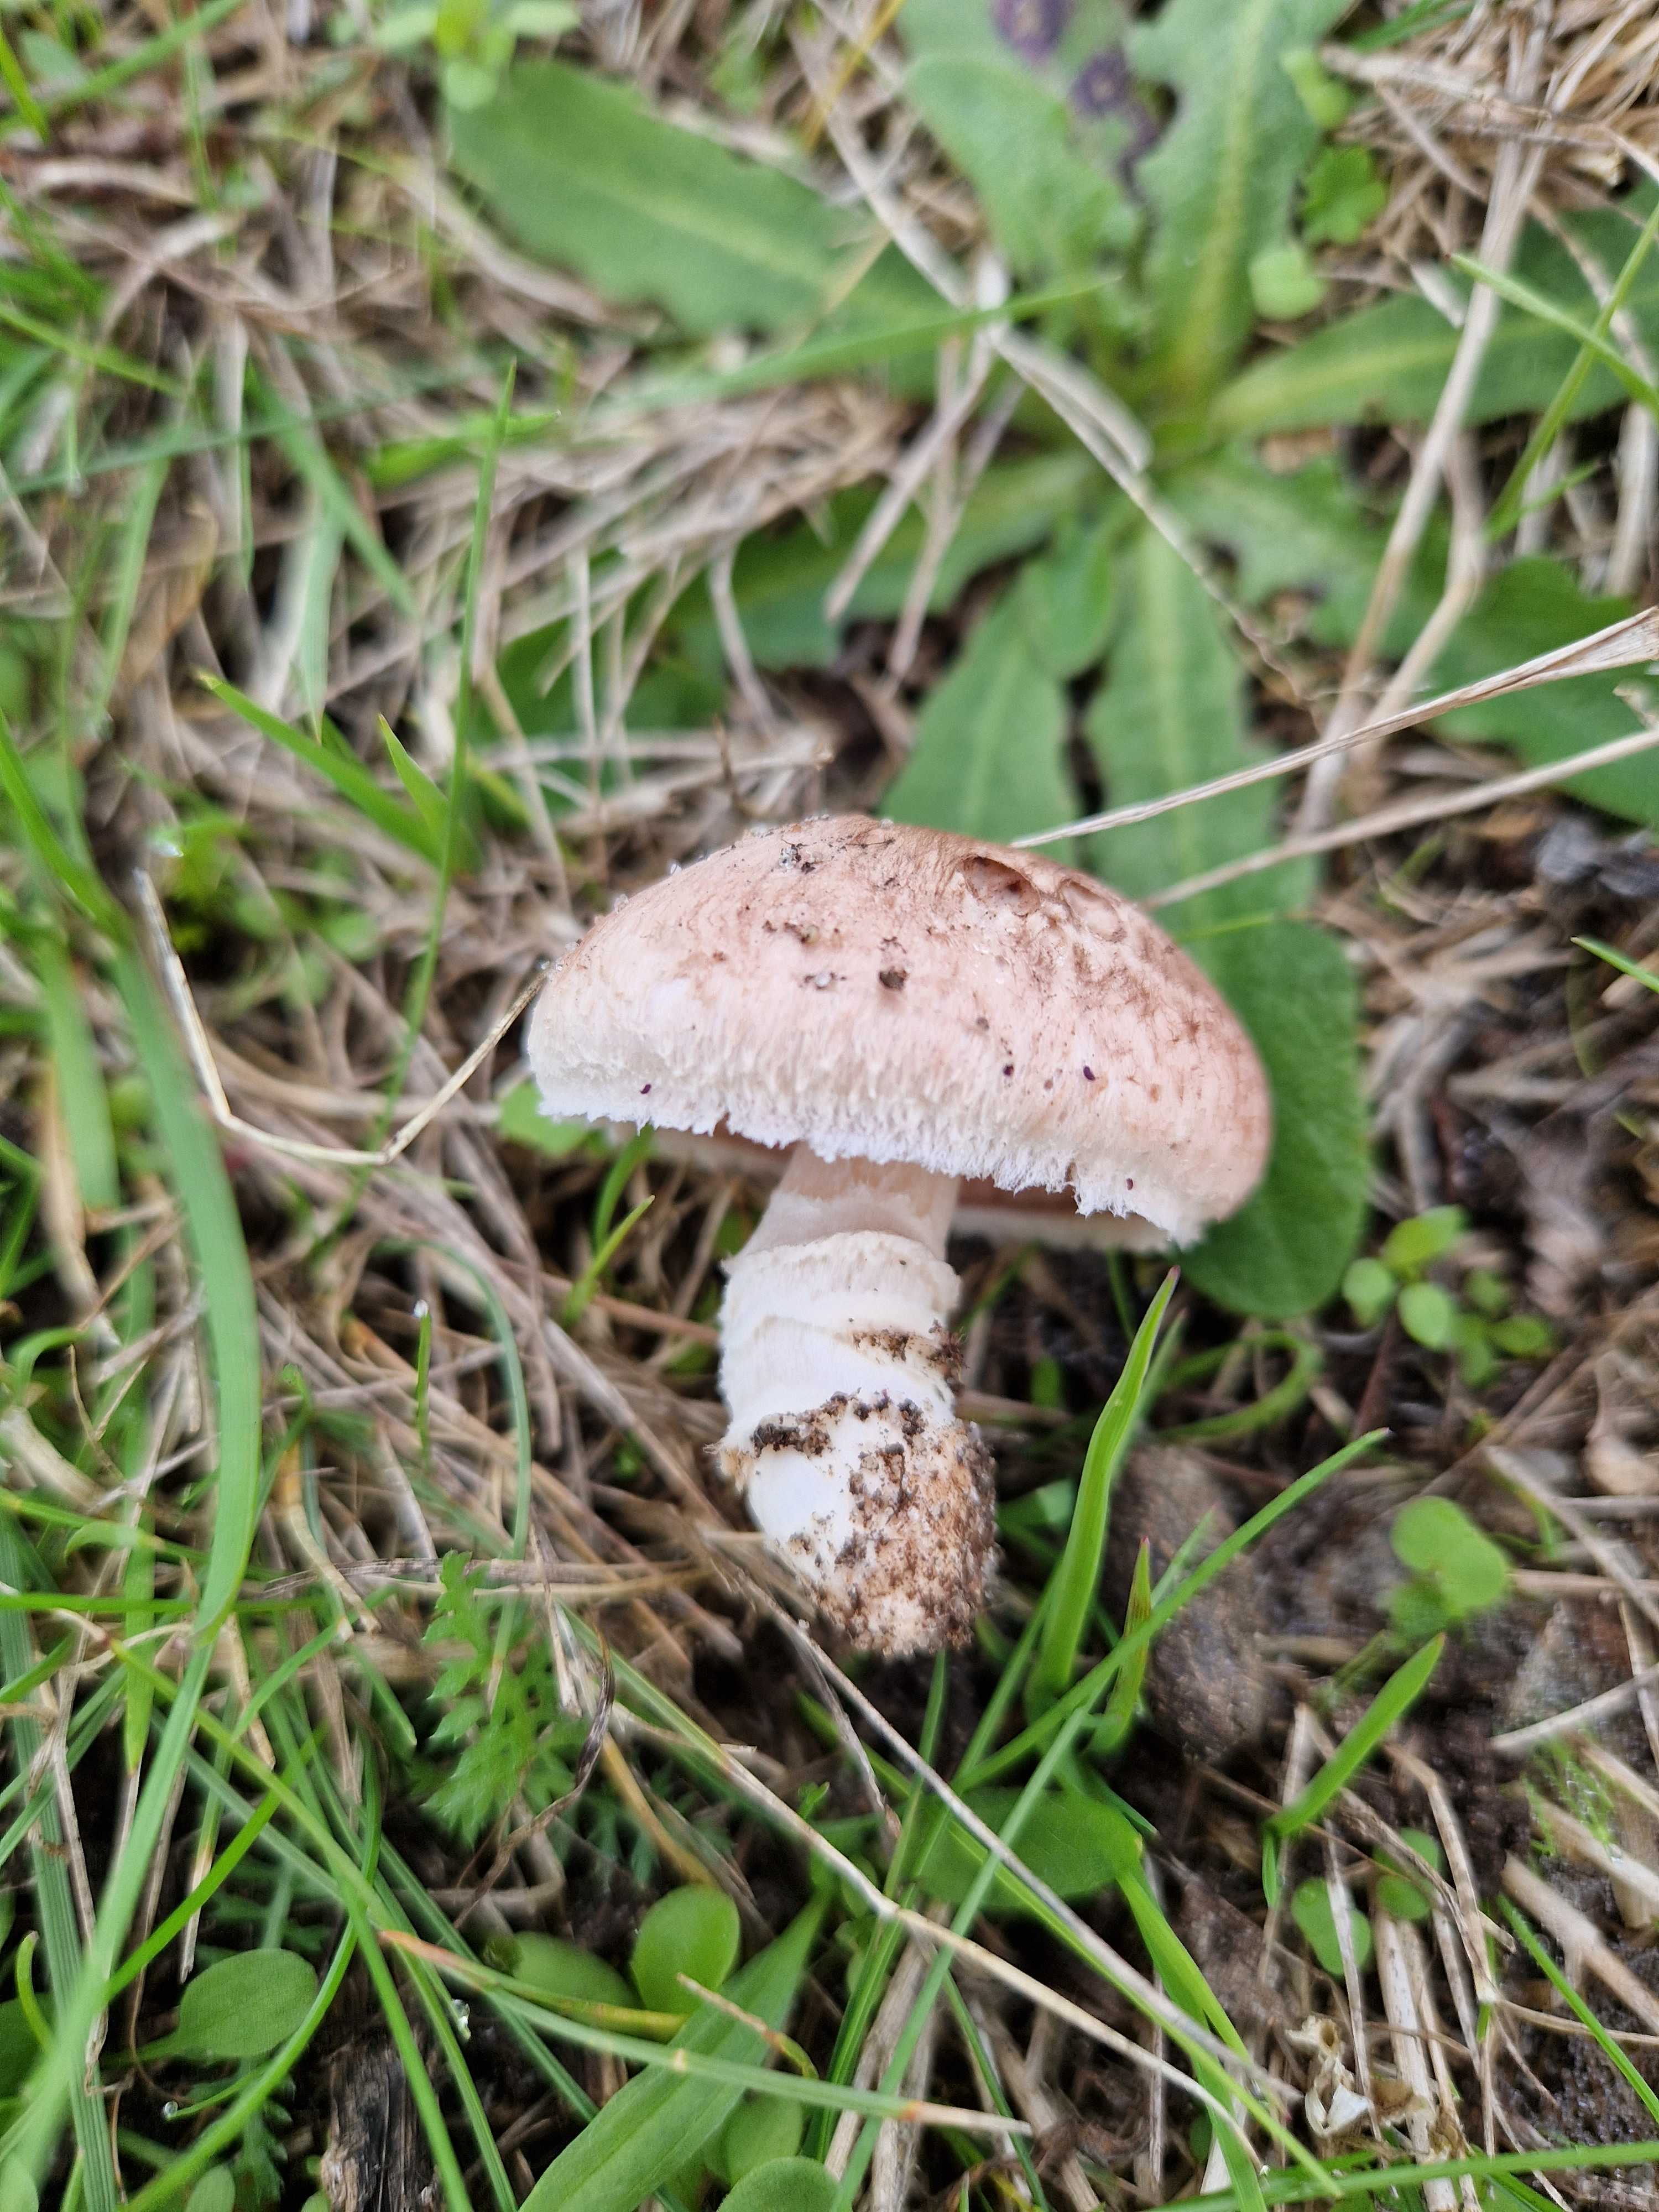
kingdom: Fungi
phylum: Basidiomycota
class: Agaricomycetes
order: Agaricales
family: Agaricaceae
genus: Agaricus
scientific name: Agaricus cupreobrunneus
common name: kobberbrun champignon
